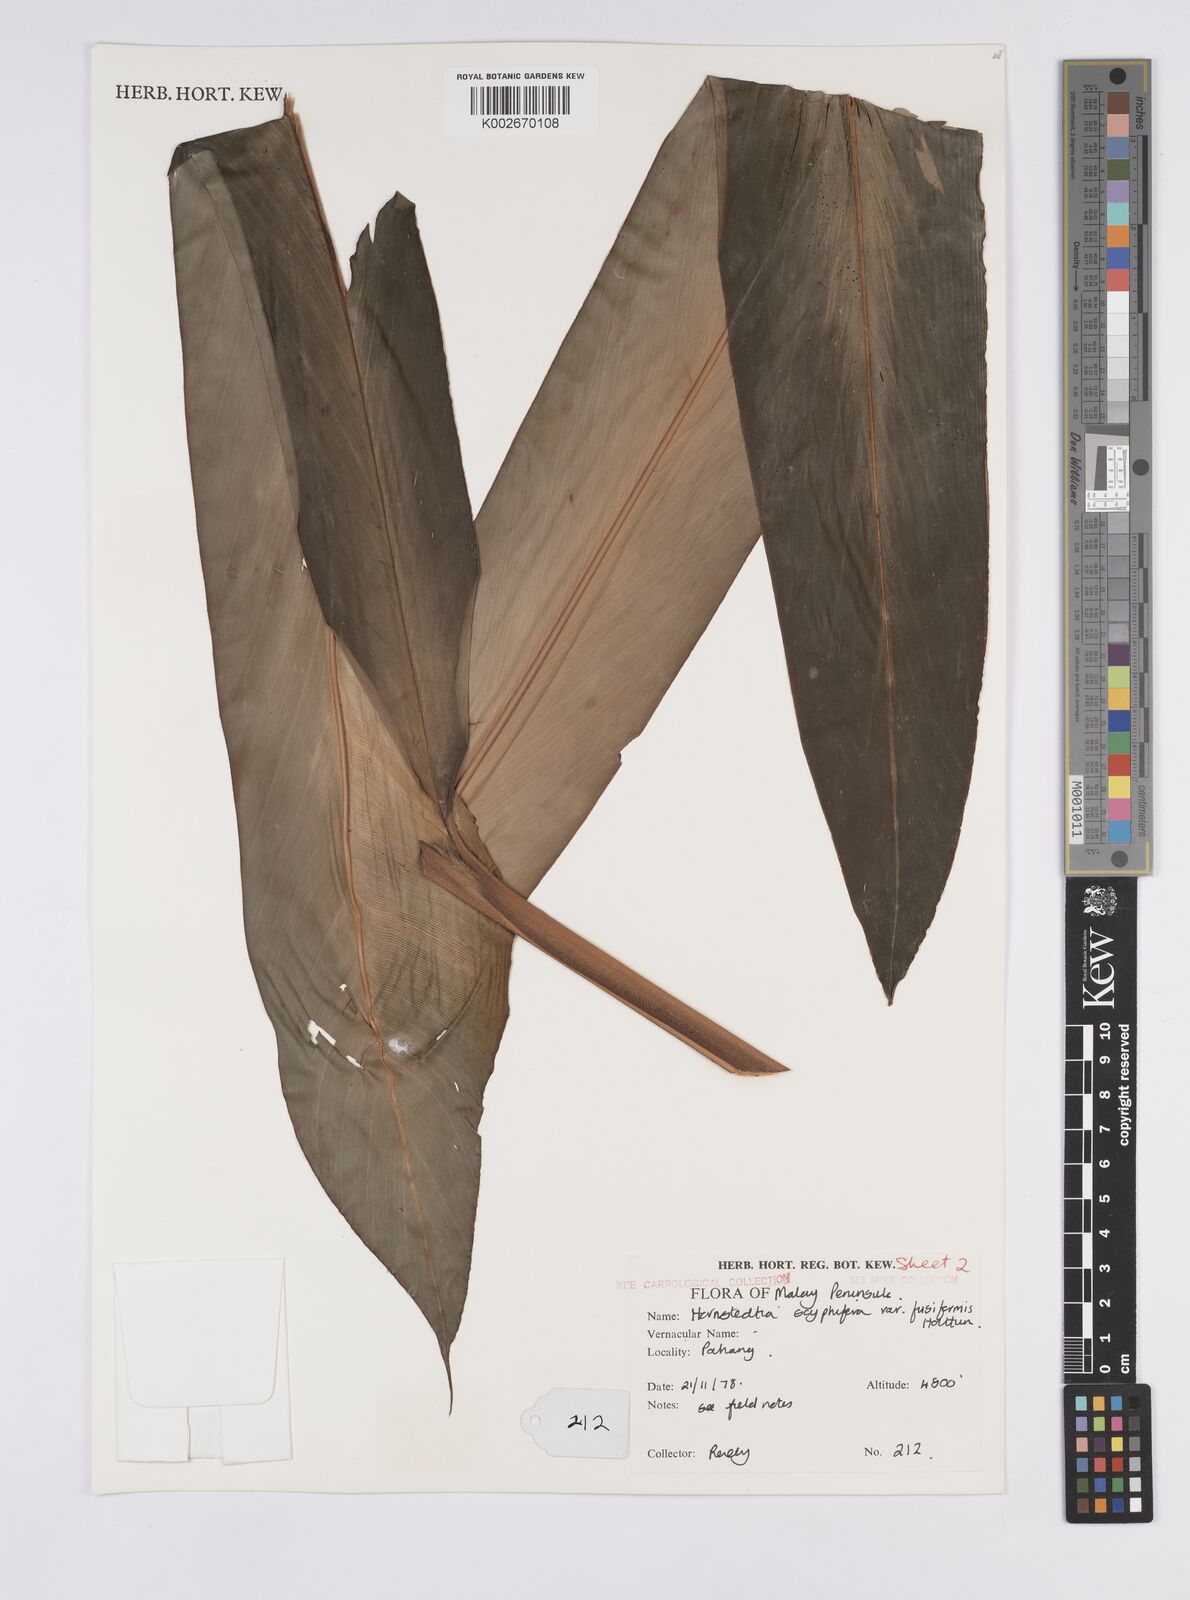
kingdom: Plantae
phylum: Tracheophyta
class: Liliopsida
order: Zingiberales
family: Zingiberaceae
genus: Hornstedtia
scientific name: Hornstedtia scyphifera
